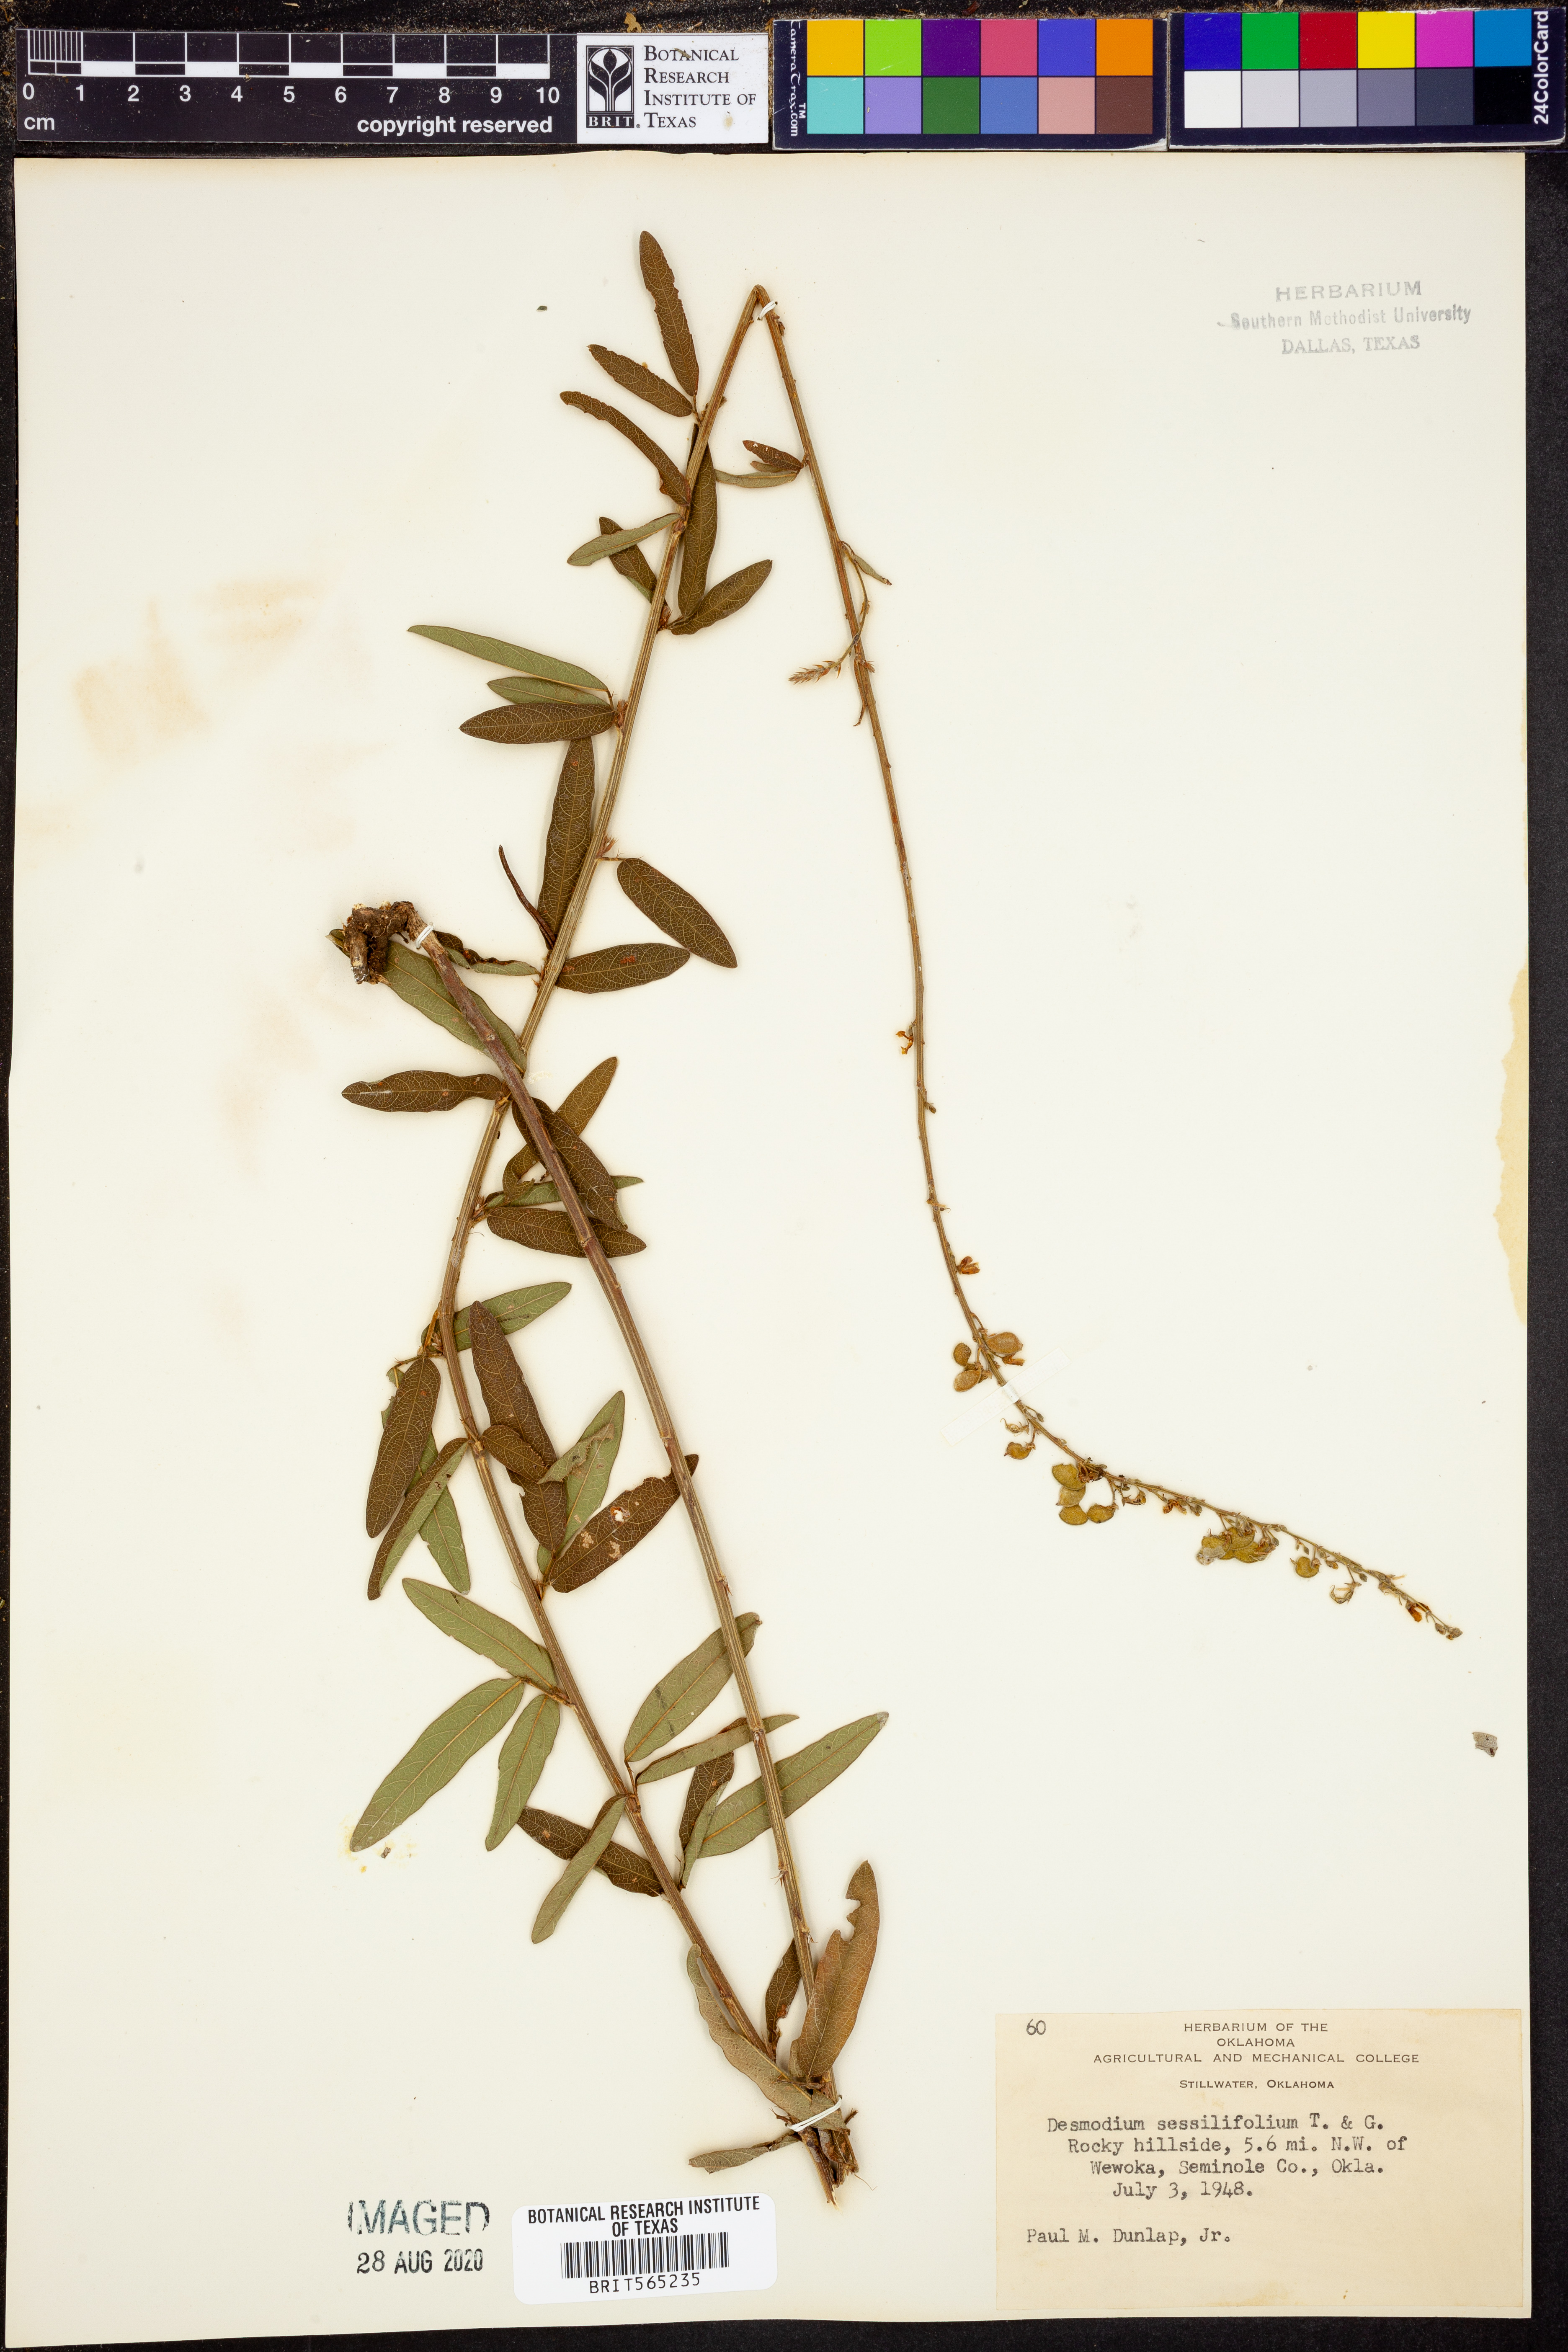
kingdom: Plantae
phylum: Tracheophyta
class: Magnoliopsida
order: Fabales
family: Fabaceae
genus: Desmodium
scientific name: Desmodium sessilifolium
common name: Sessile tick-clover
